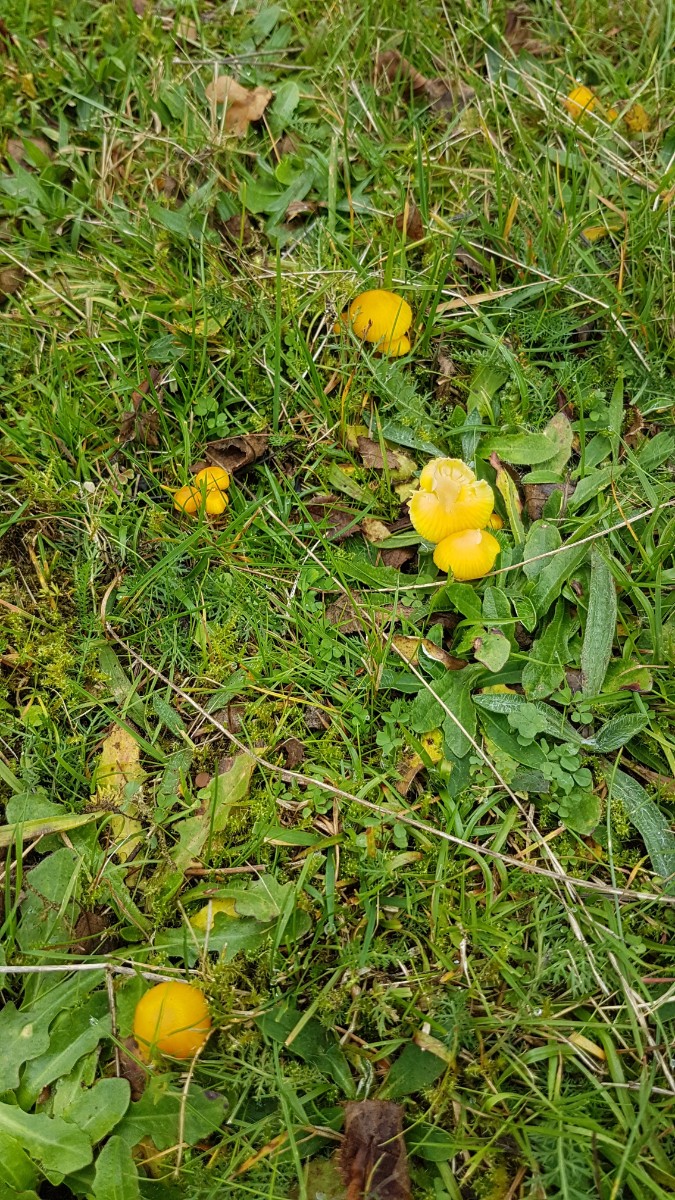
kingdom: Fungi
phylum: Basidiomycota
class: Agaricomycetes
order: Agaricales
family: Hygrophoraceae
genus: Hygrocybe
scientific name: Hygrocybe ceracea
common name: voksgul vokshat
